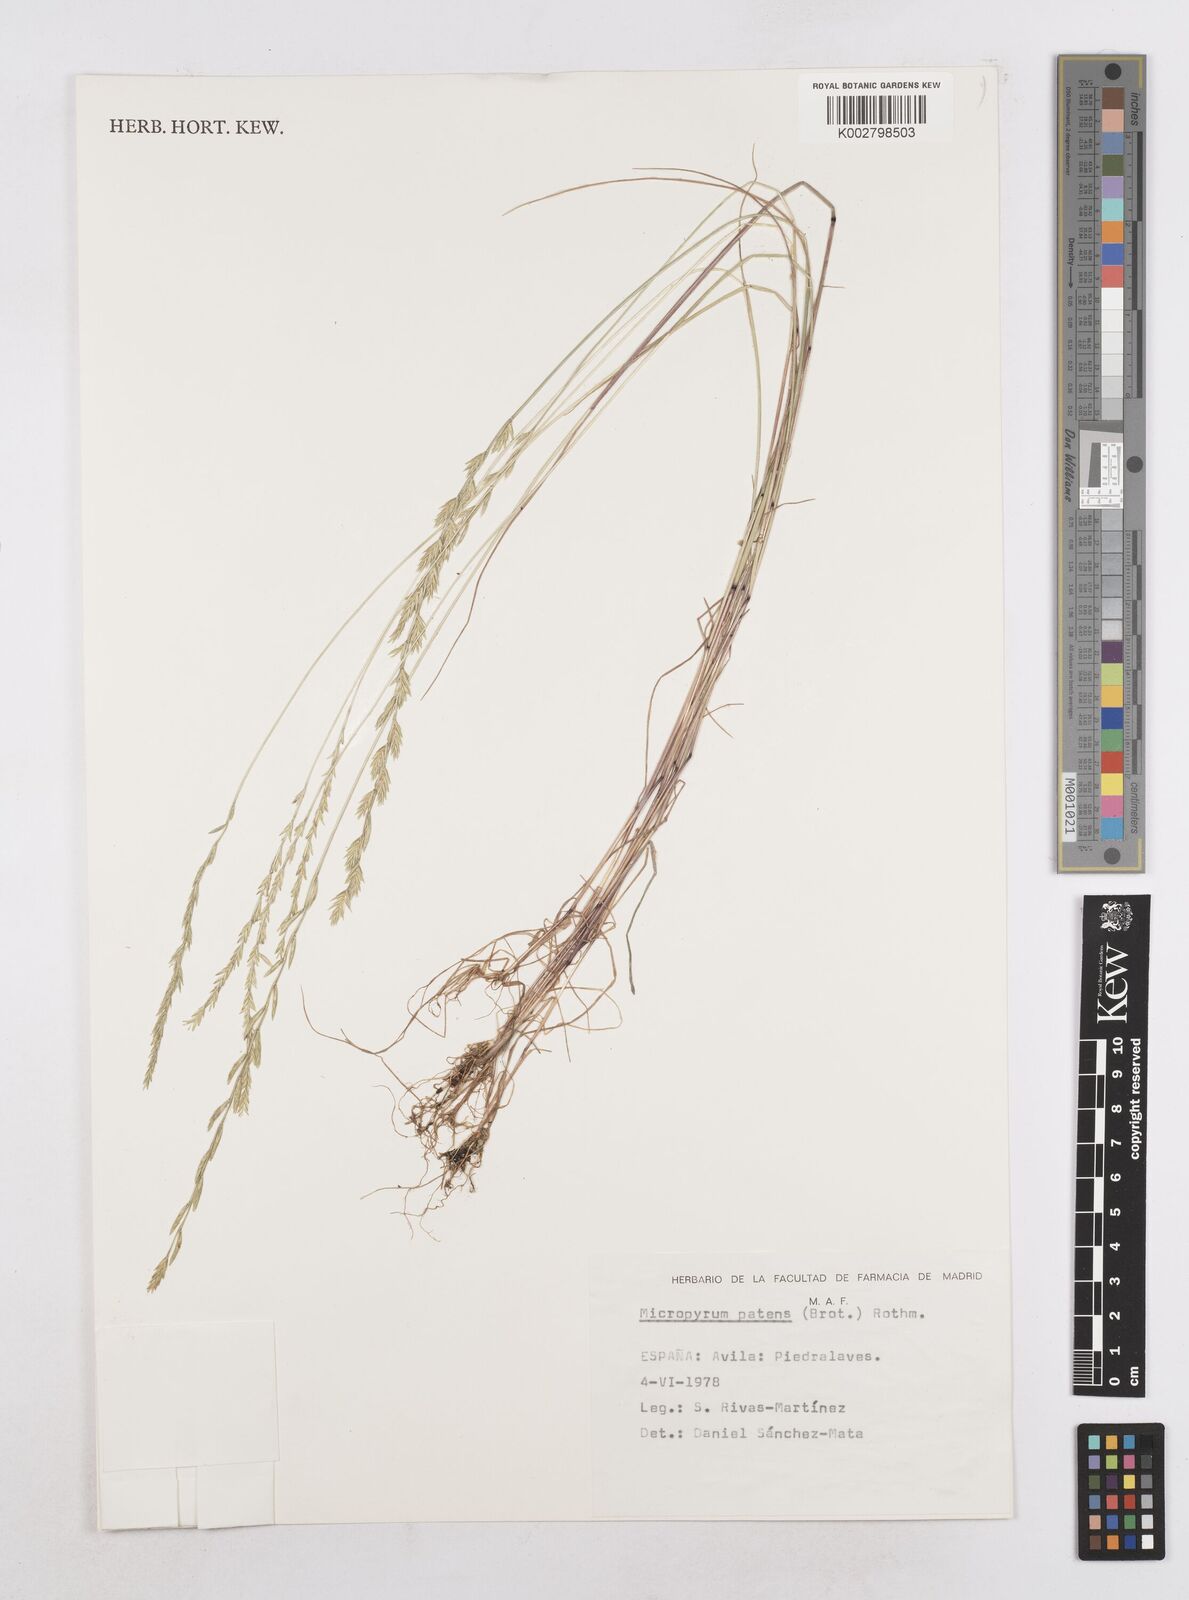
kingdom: Plantae
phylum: Tracheophyta
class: Liliopsida
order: Poales
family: Poaceae
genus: Festuca
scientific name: Festuca Micropyrum patens
